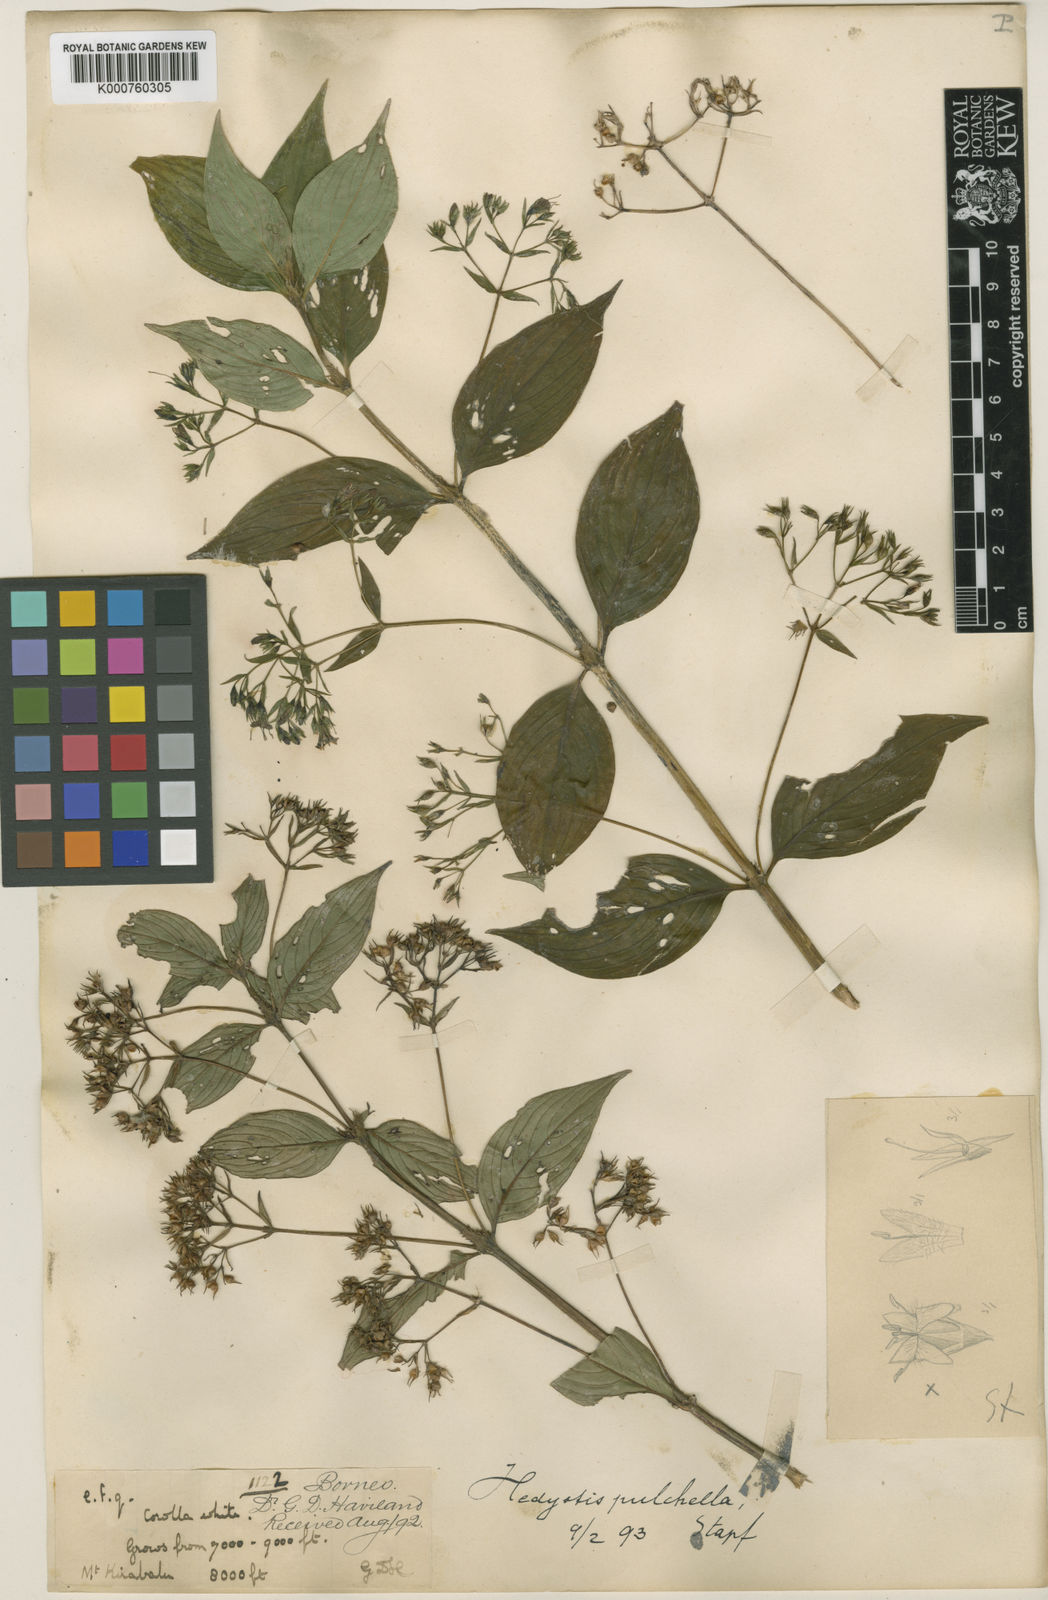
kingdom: Plantae
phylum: Tracheophyta
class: Magnoliopsida
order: Gentianales
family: Rubiaceae
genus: Hedyotis
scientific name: Hedyotis pulchella
